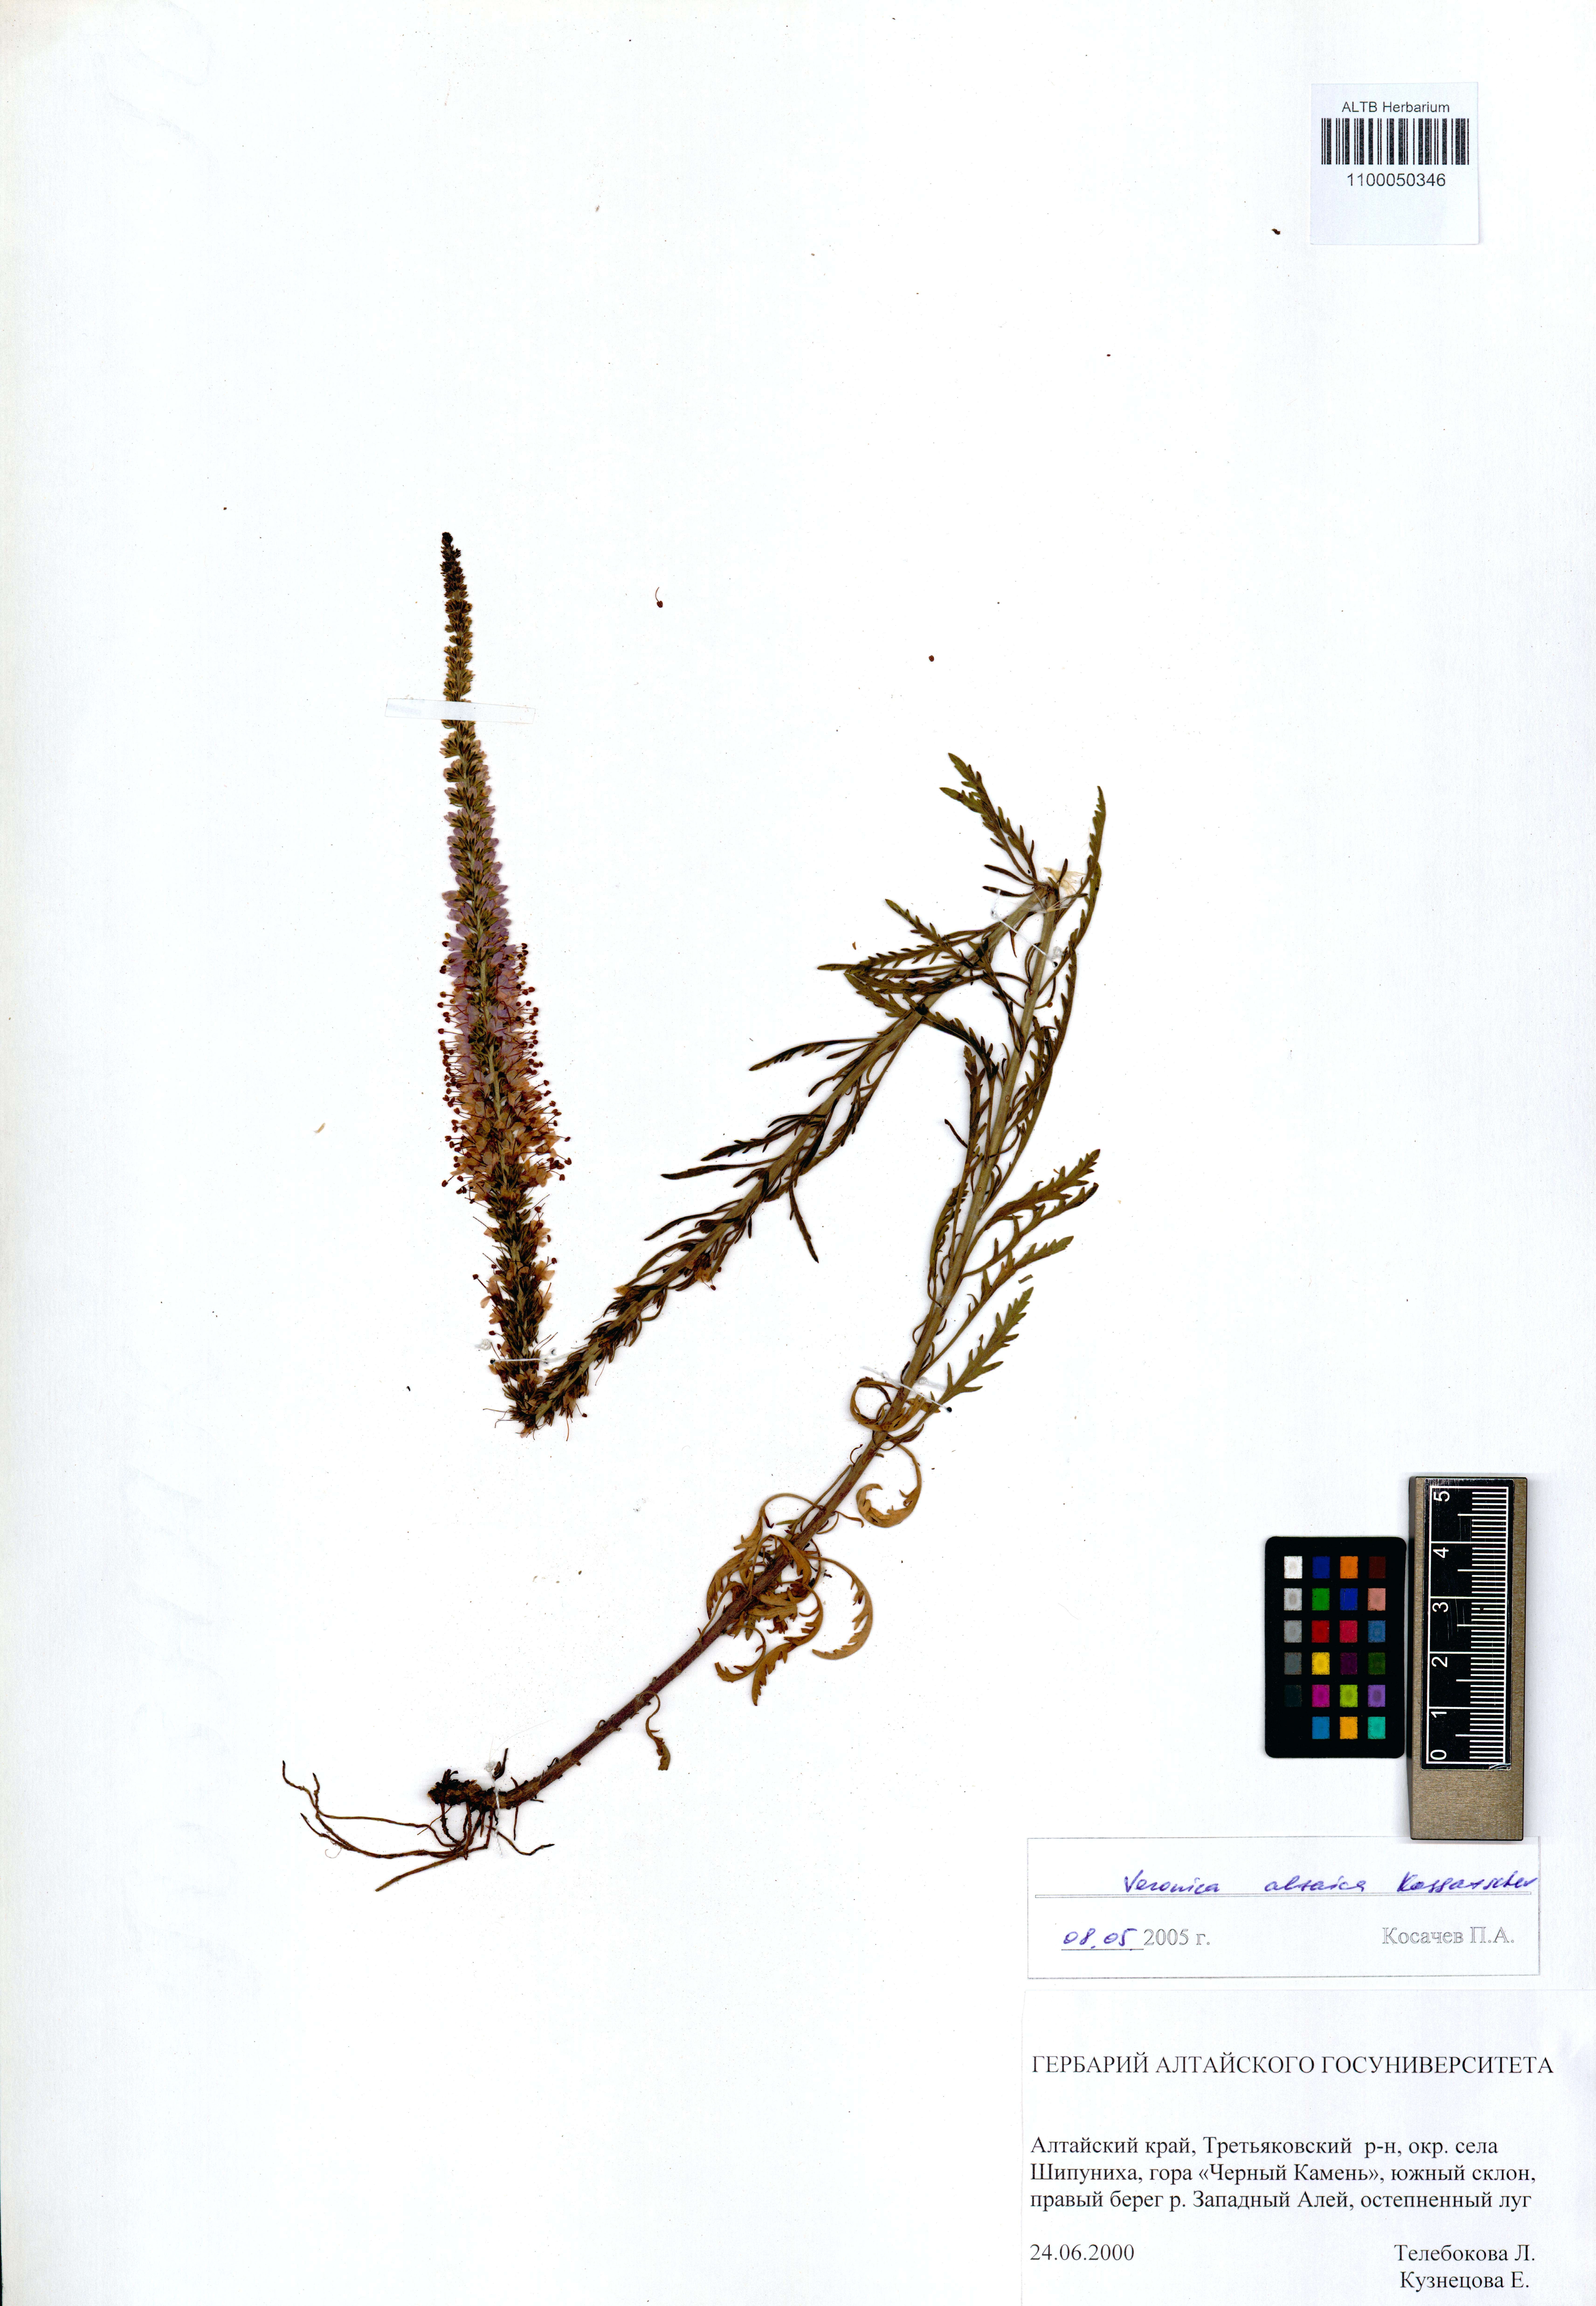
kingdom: Plantae
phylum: Tracheophyta
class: Magnoliopsida
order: Lamiales
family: Plantaginaceae
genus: Veronica
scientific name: Veronica altaica
